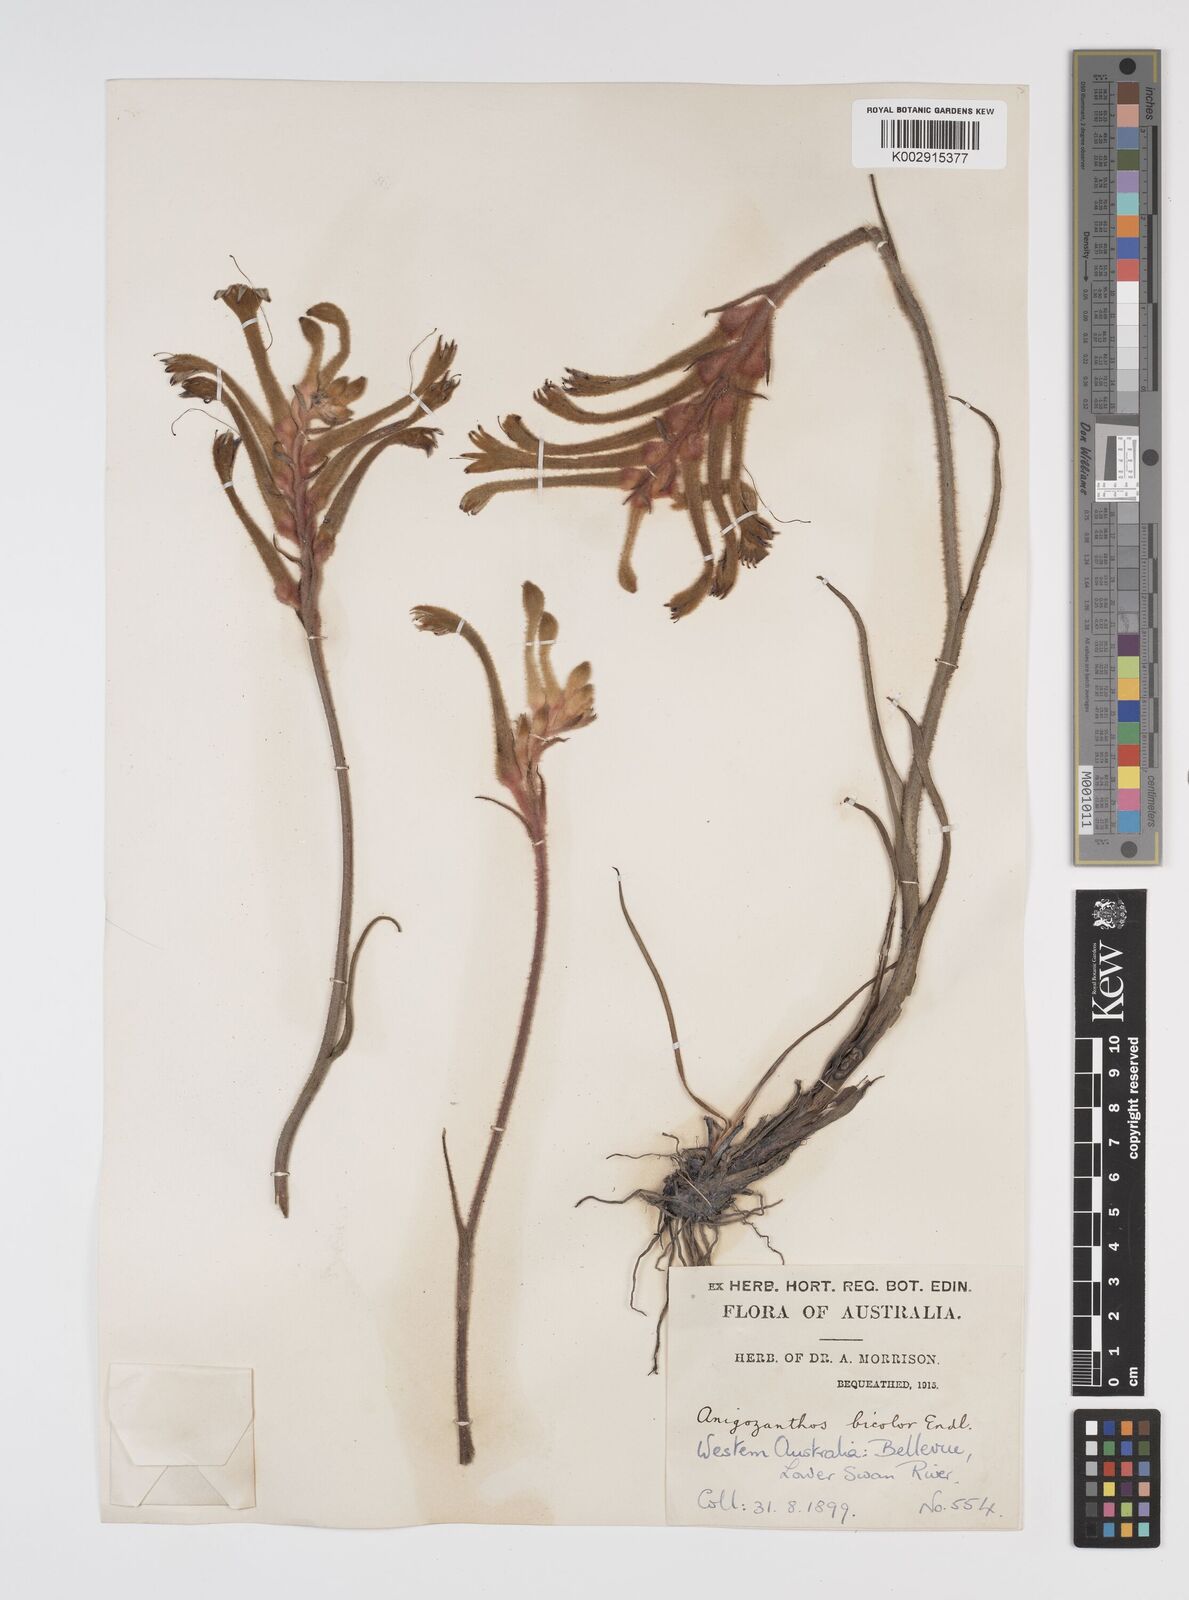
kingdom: Plantae
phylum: Tracheophyta
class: Liliopsida
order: Commelinales
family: Haemodoraceae
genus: Anigozanthos
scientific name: Anigozanthos bicolor
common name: Little kangaroo-paw
